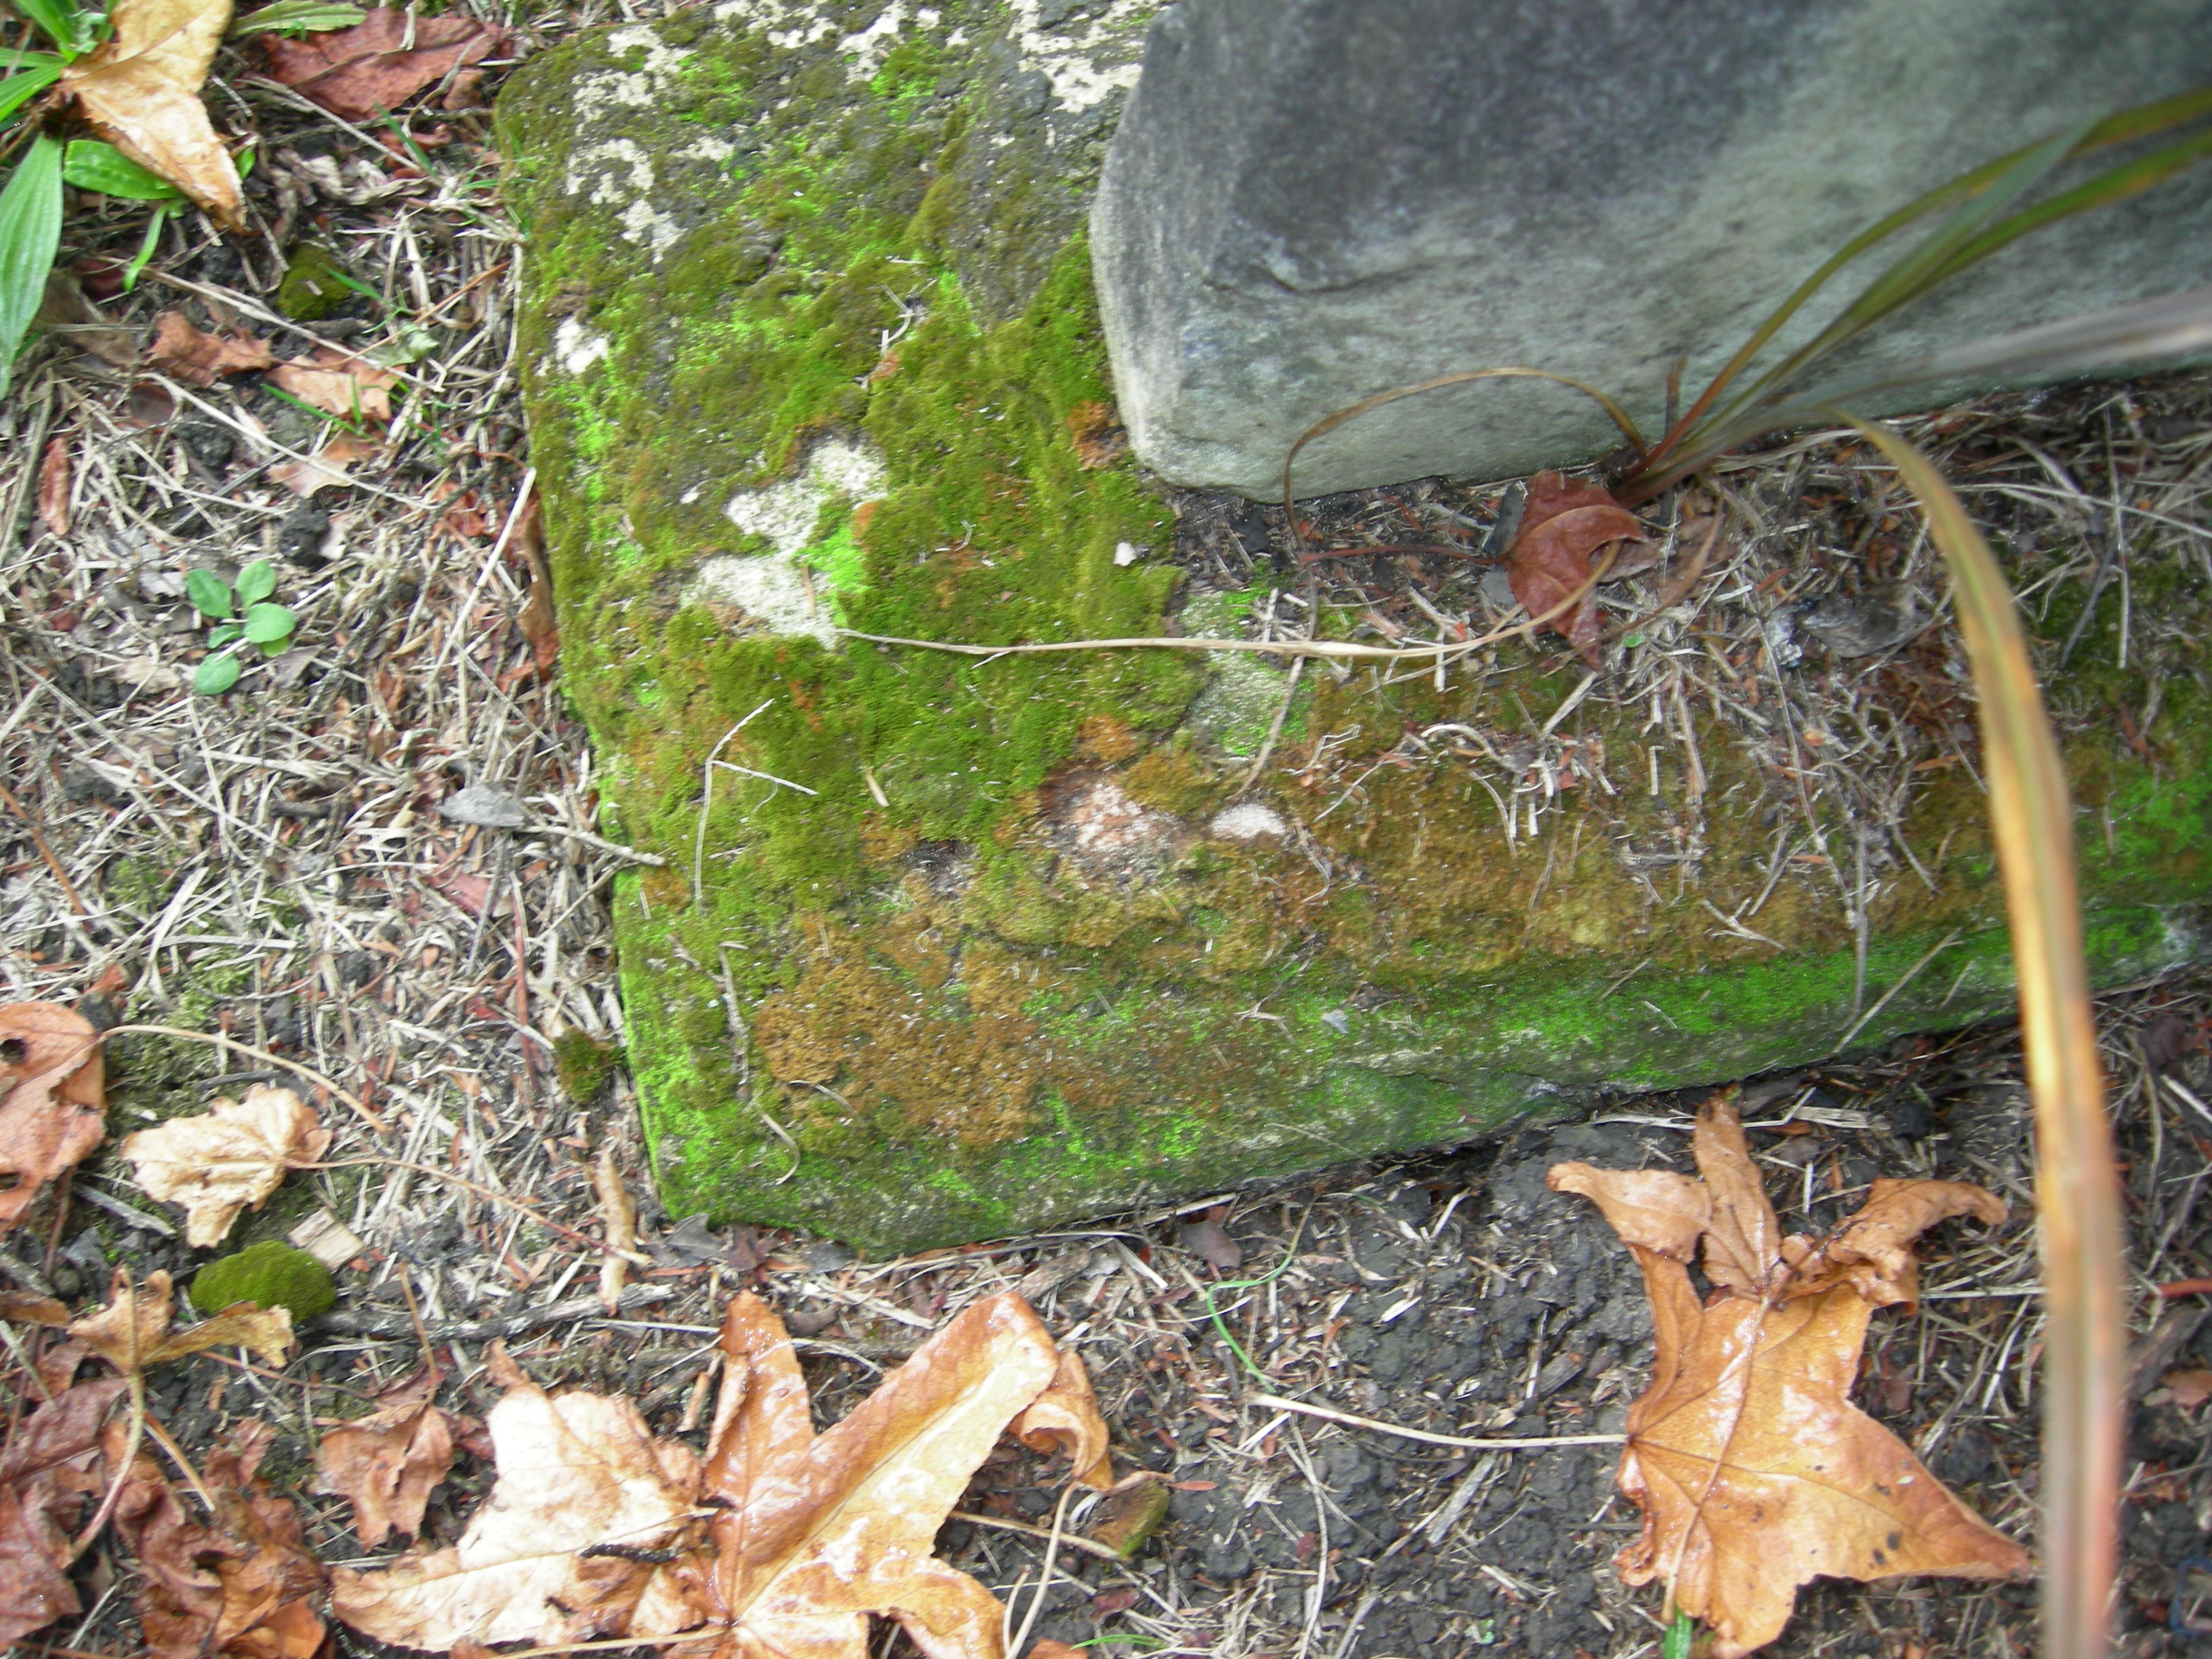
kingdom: Plantae
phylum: Bryophyta
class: Bryopsida
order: Pottiales
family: Pottiaceae
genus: Tortula
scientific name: Tortula marginata
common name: Bordered screw-moss
